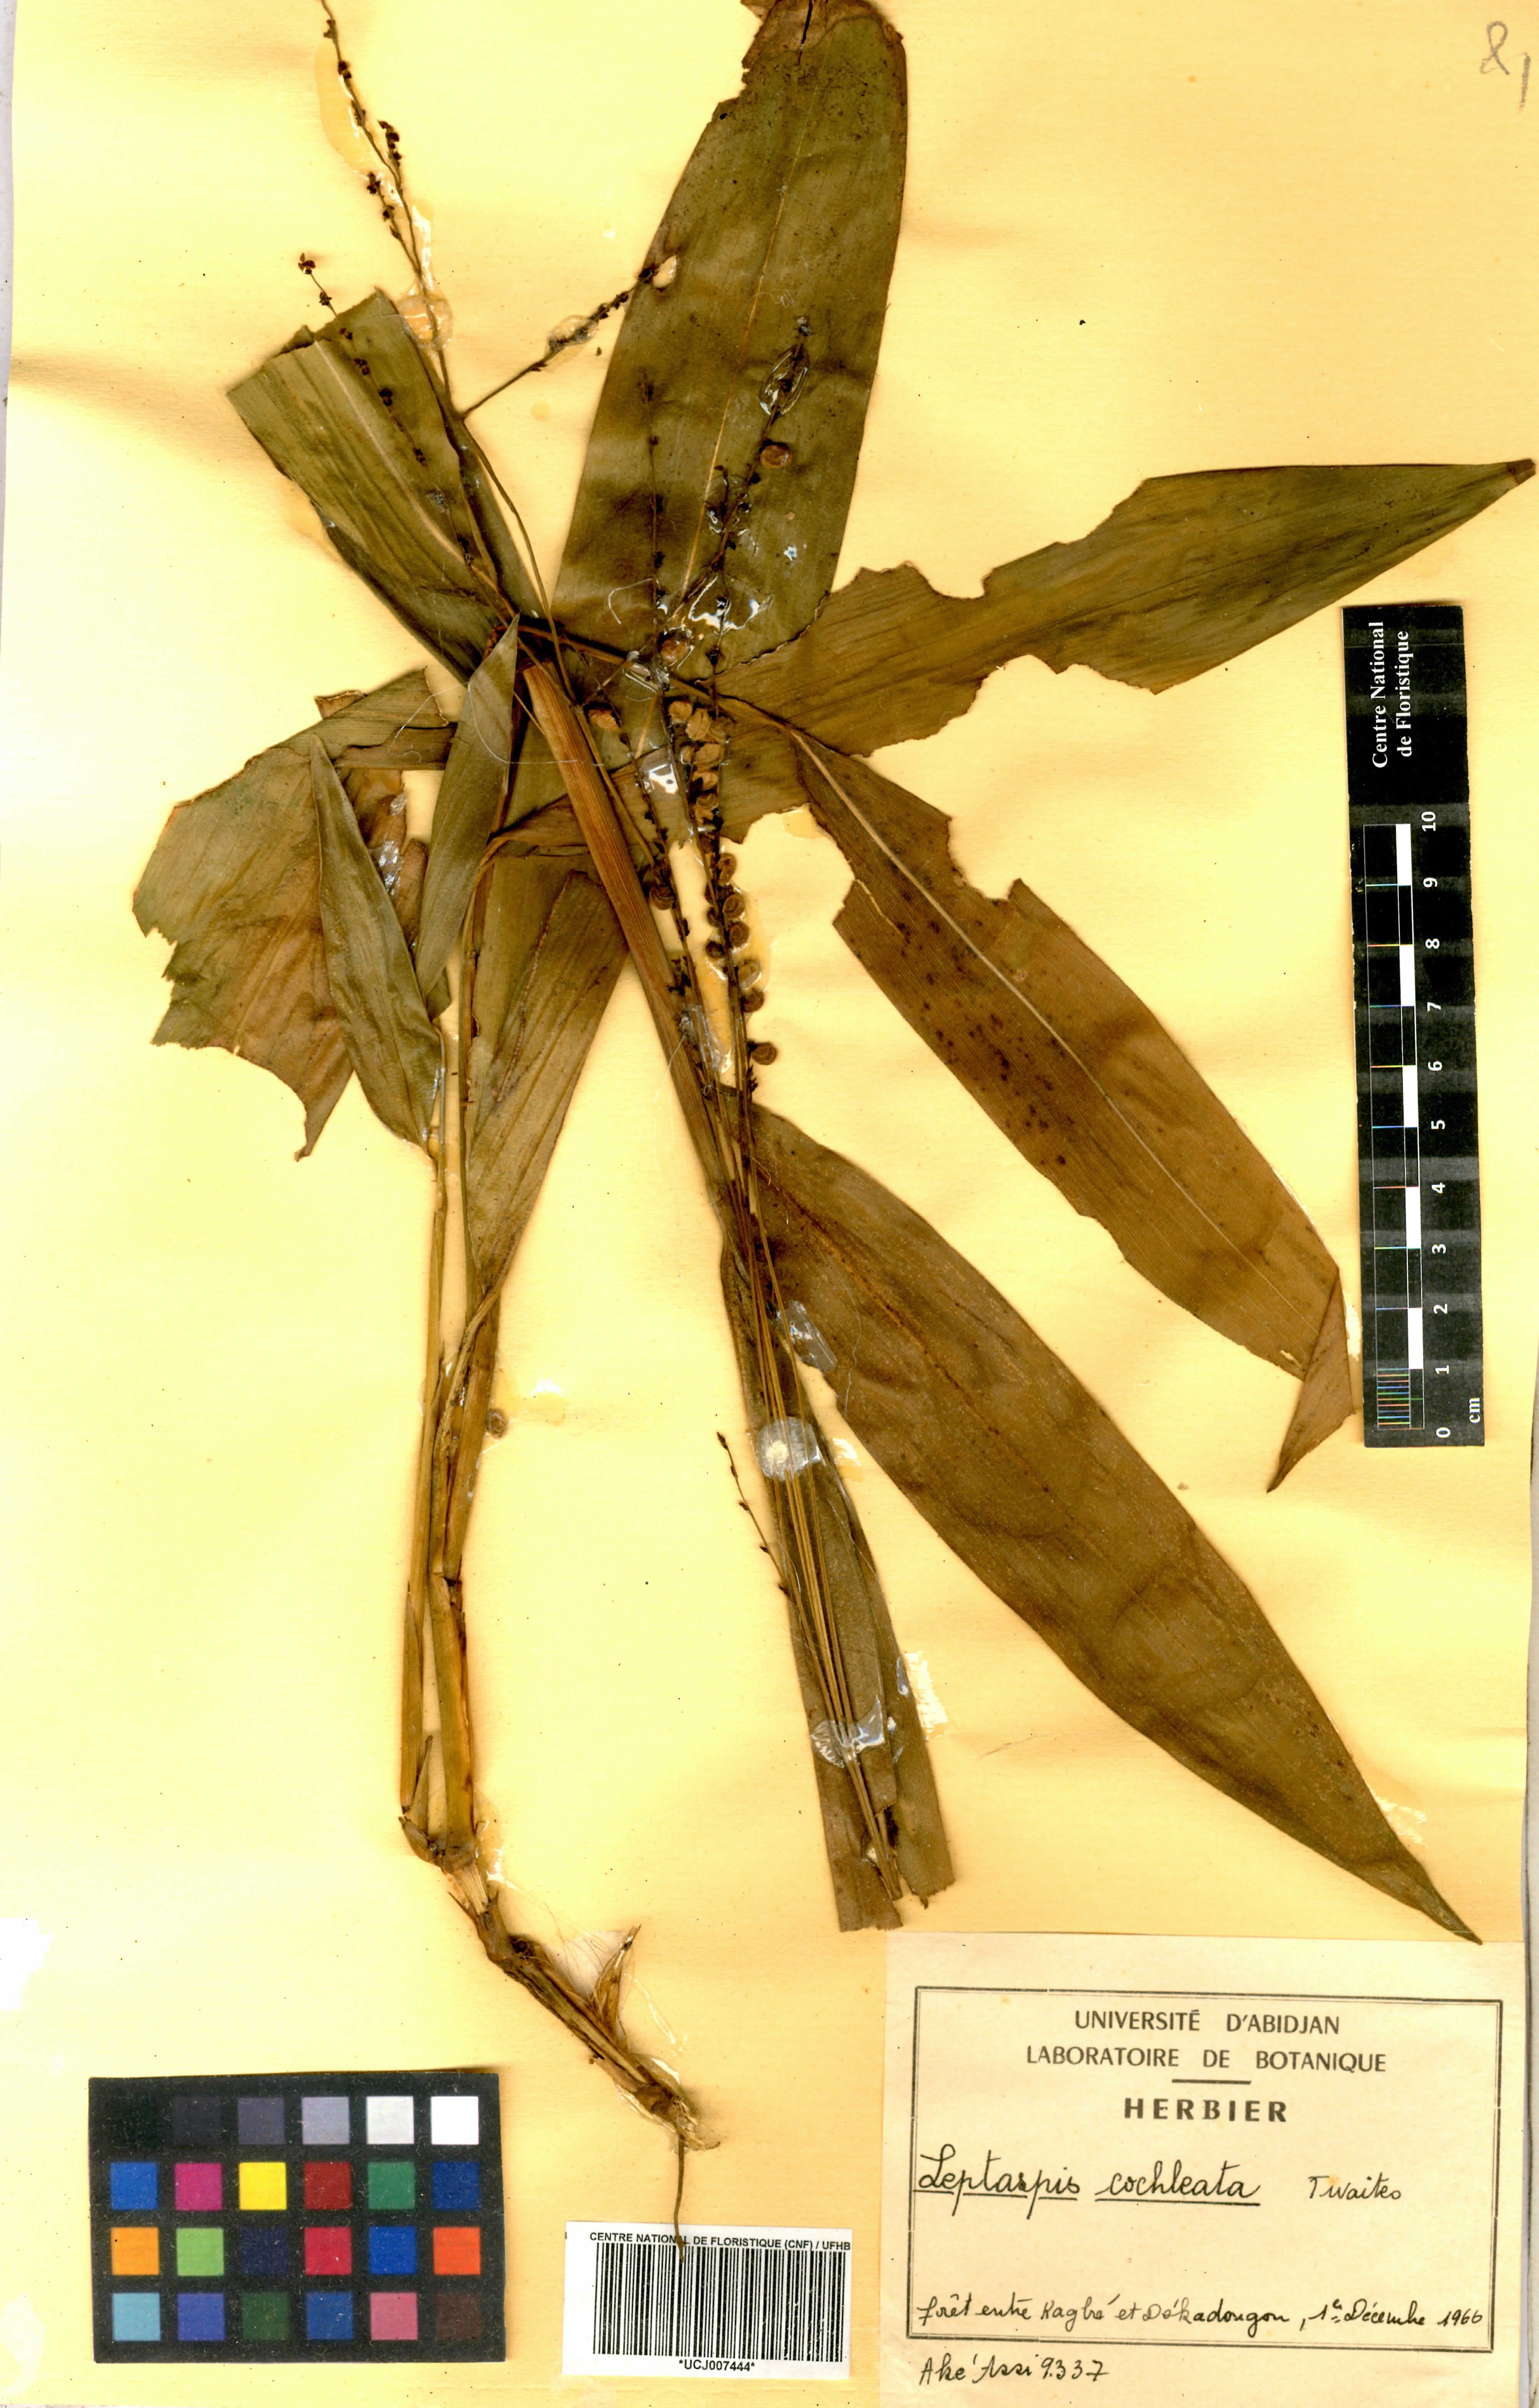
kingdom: Plantae
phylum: Tracheophyta
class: Liliopsida
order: Poales
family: Poaceae
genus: Leptaspis
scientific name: Leptaspis zeylanica
